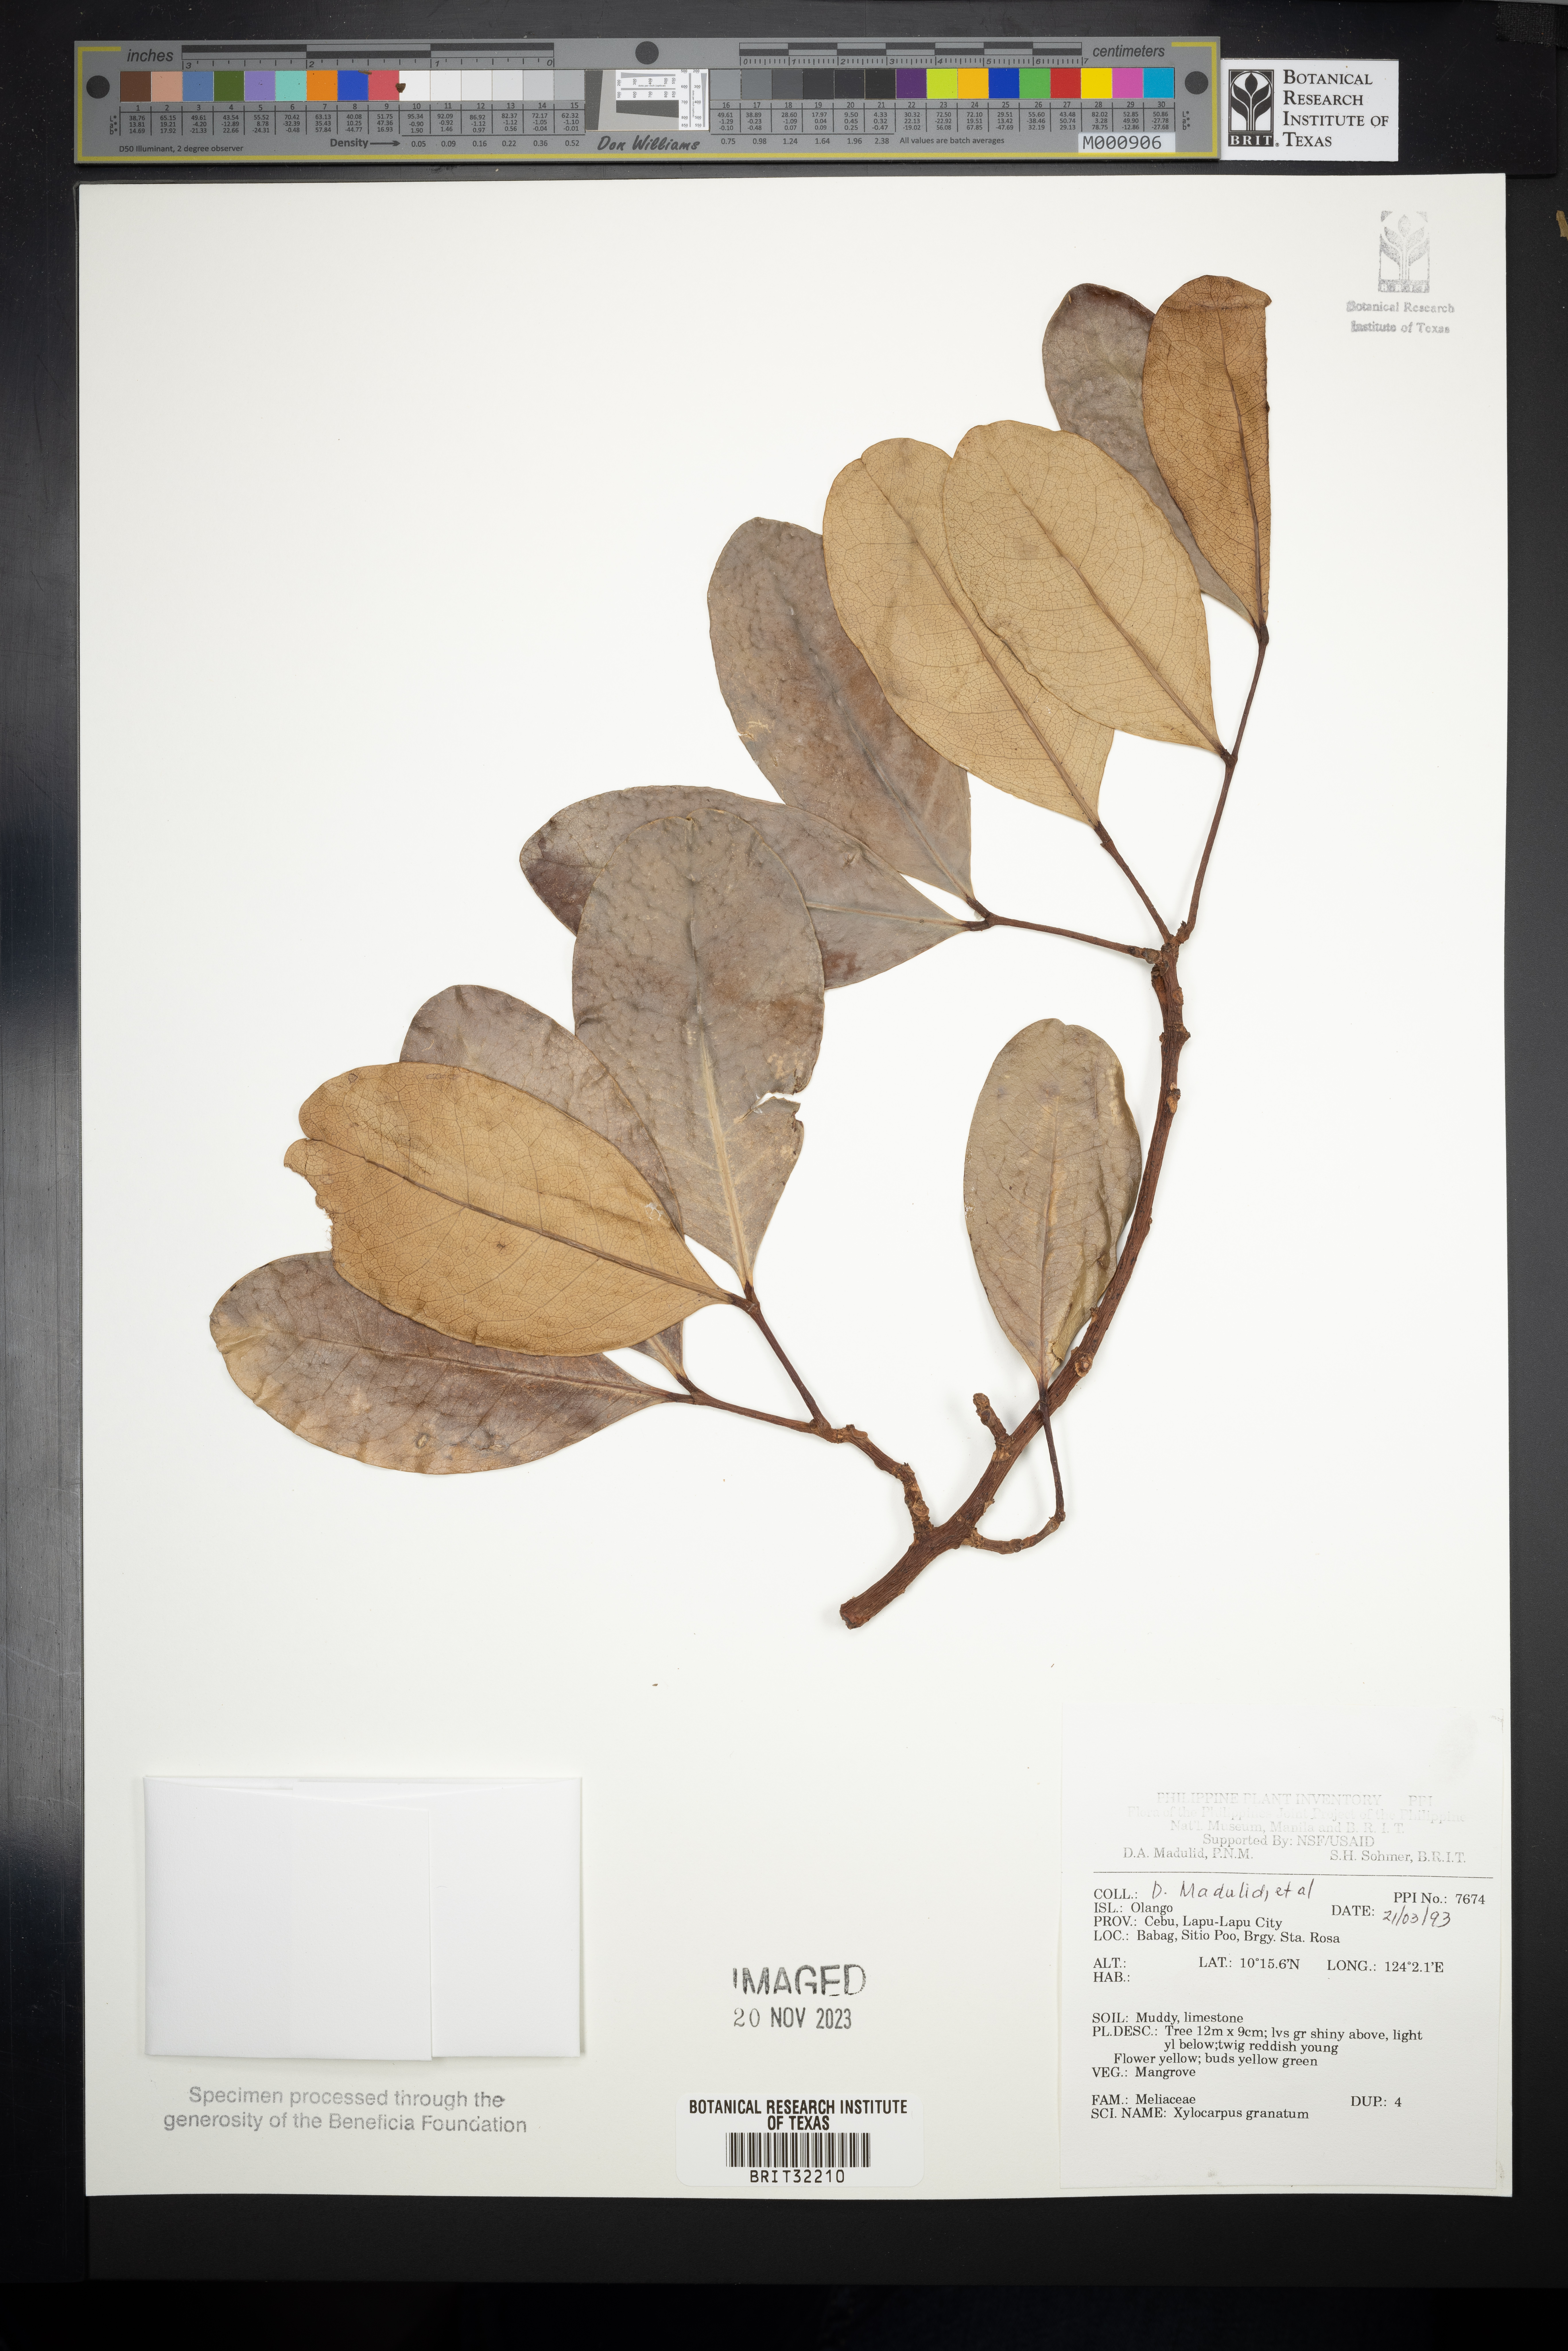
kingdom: Plantae
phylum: Tracheophyta
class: Magnoliopsida
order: Sapindales
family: Meliaceae
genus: Xylocarpus
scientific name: Xylocarpus granatum
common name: Apple mangrove
